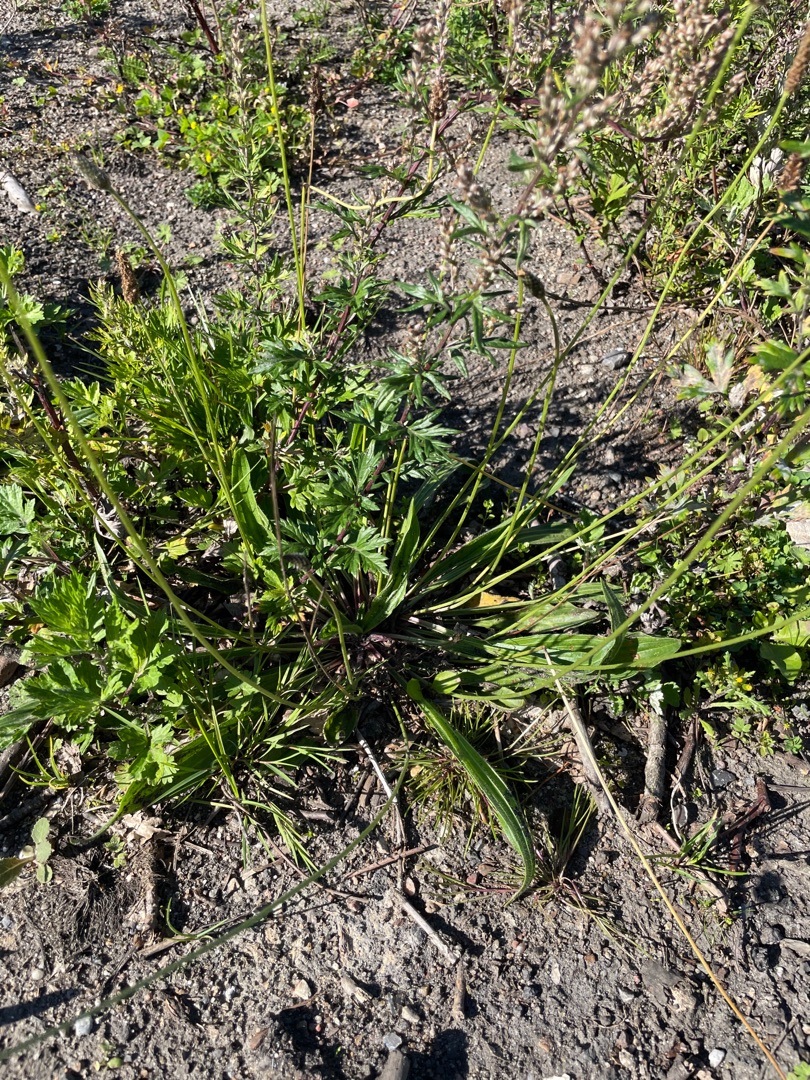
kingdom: Plantae
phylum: Tracheophyta
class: Magnoliopsida
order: Lamiales
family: Plantaginaceae
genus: Plantago
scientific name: Plantago lanceolata
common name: Lancet-vejbred
